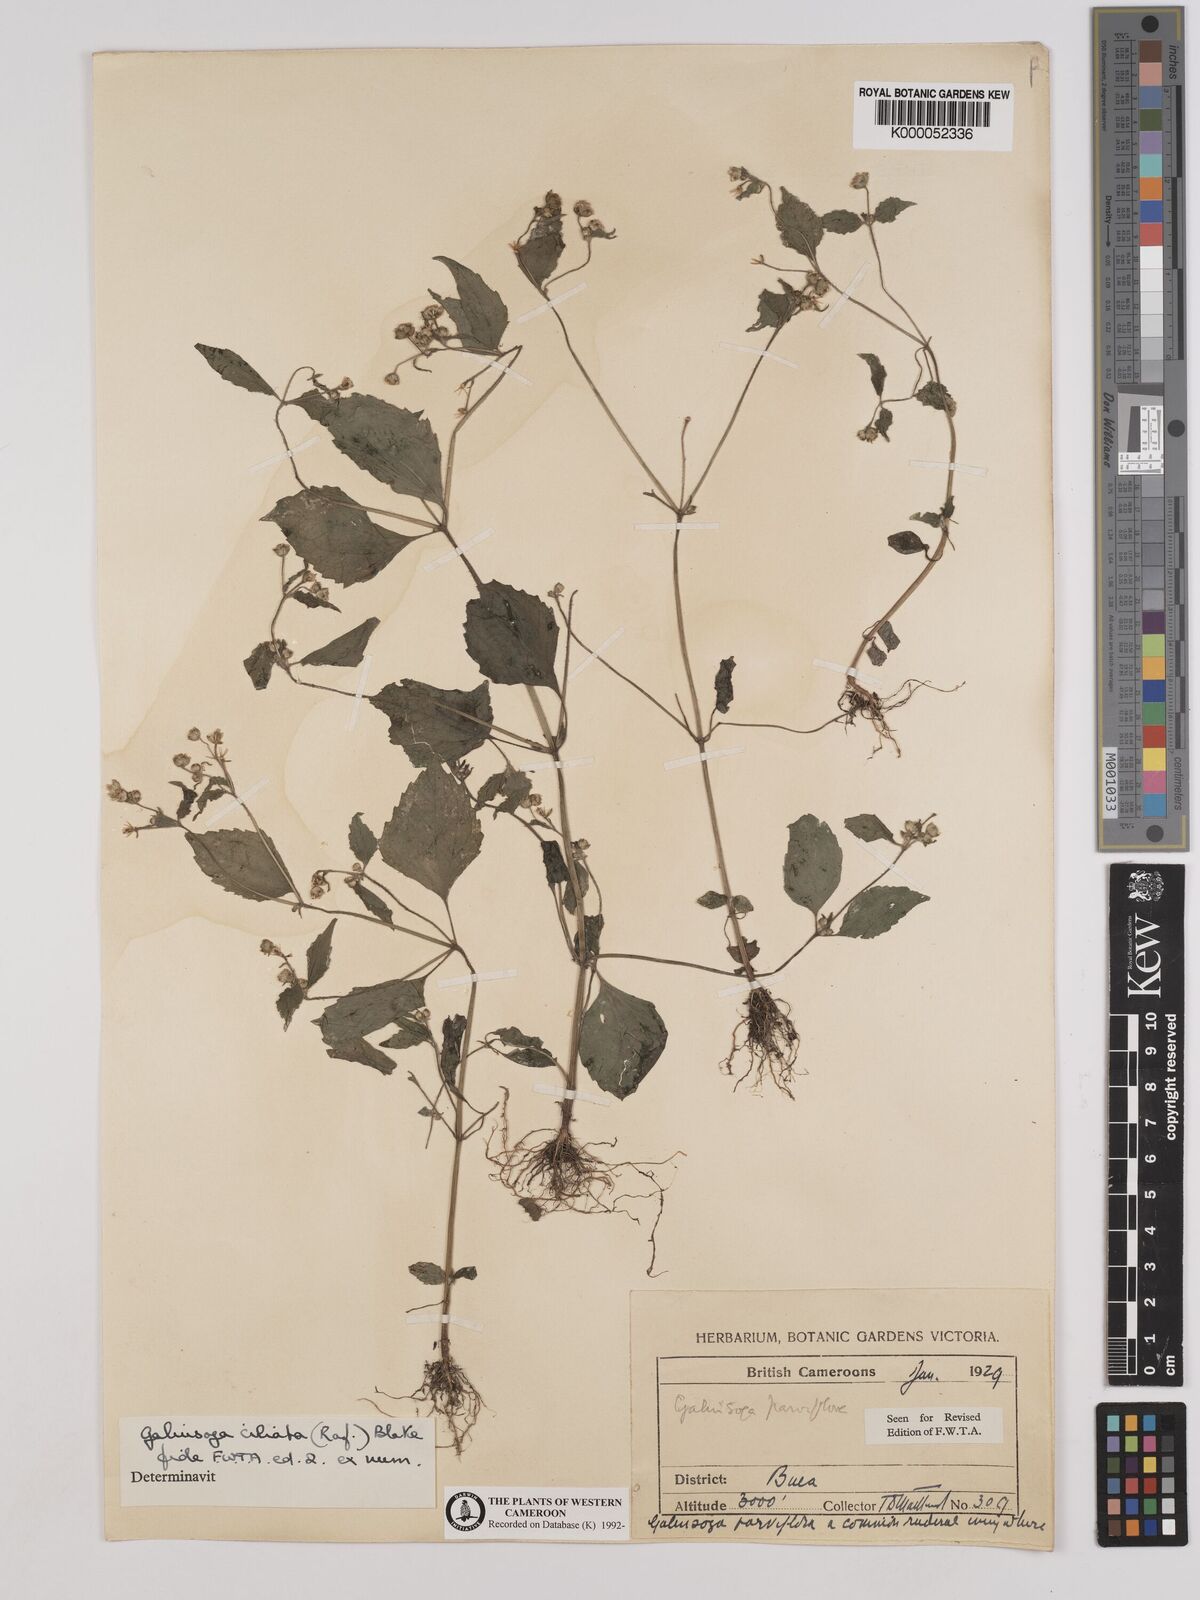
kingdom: Plantae
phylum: Tracheophyta
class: Magnoliopsida
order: Asterales
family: Asteraceae
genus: Galinsoga
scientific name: Galinsoga quadriradiata
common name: Shaggy soldier
